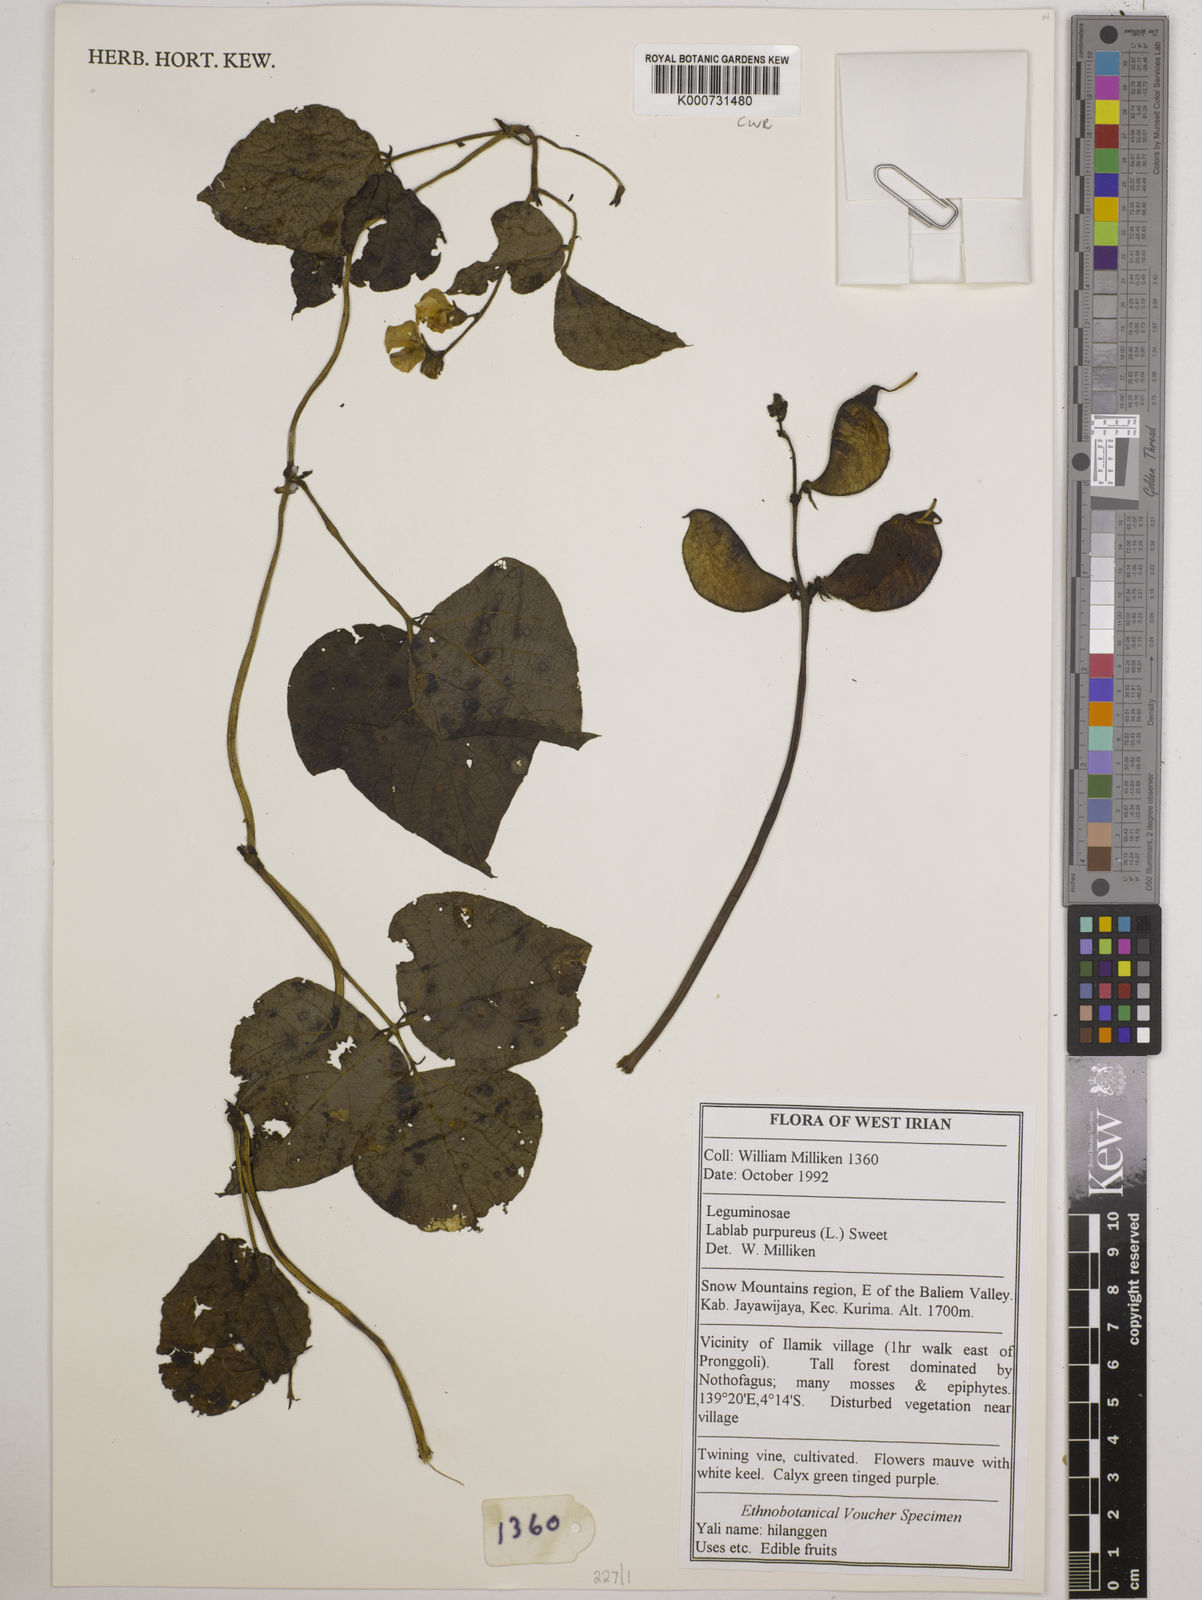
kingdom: Plantae
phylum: Tracheophyta
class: Magnoliopsida
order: Fabales
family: Fabaceae
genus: Lablab
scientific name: Lablab purpureus
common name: Lablab-bean
